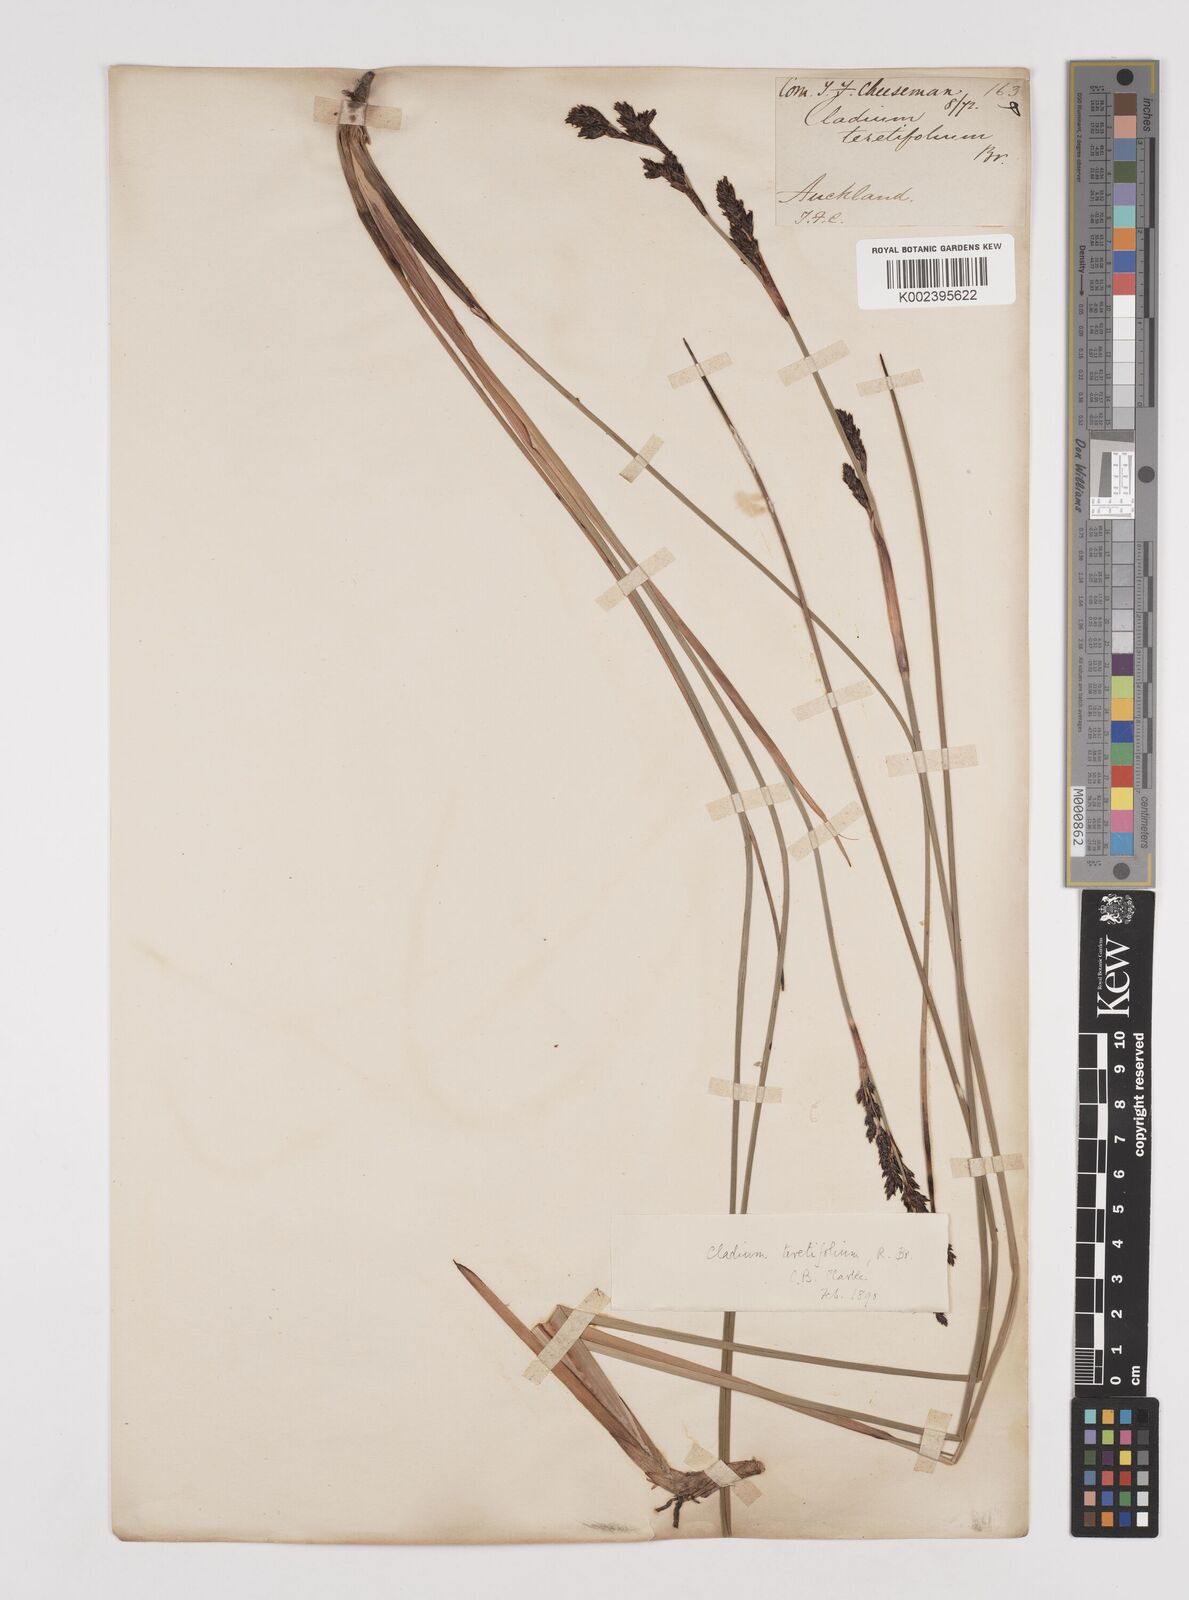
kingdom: Plantae
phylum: Tracheophyta
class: Liliopsida
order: Poales
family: Cyperaceae
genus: Machaerina
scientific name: Machaerina teretifolia
